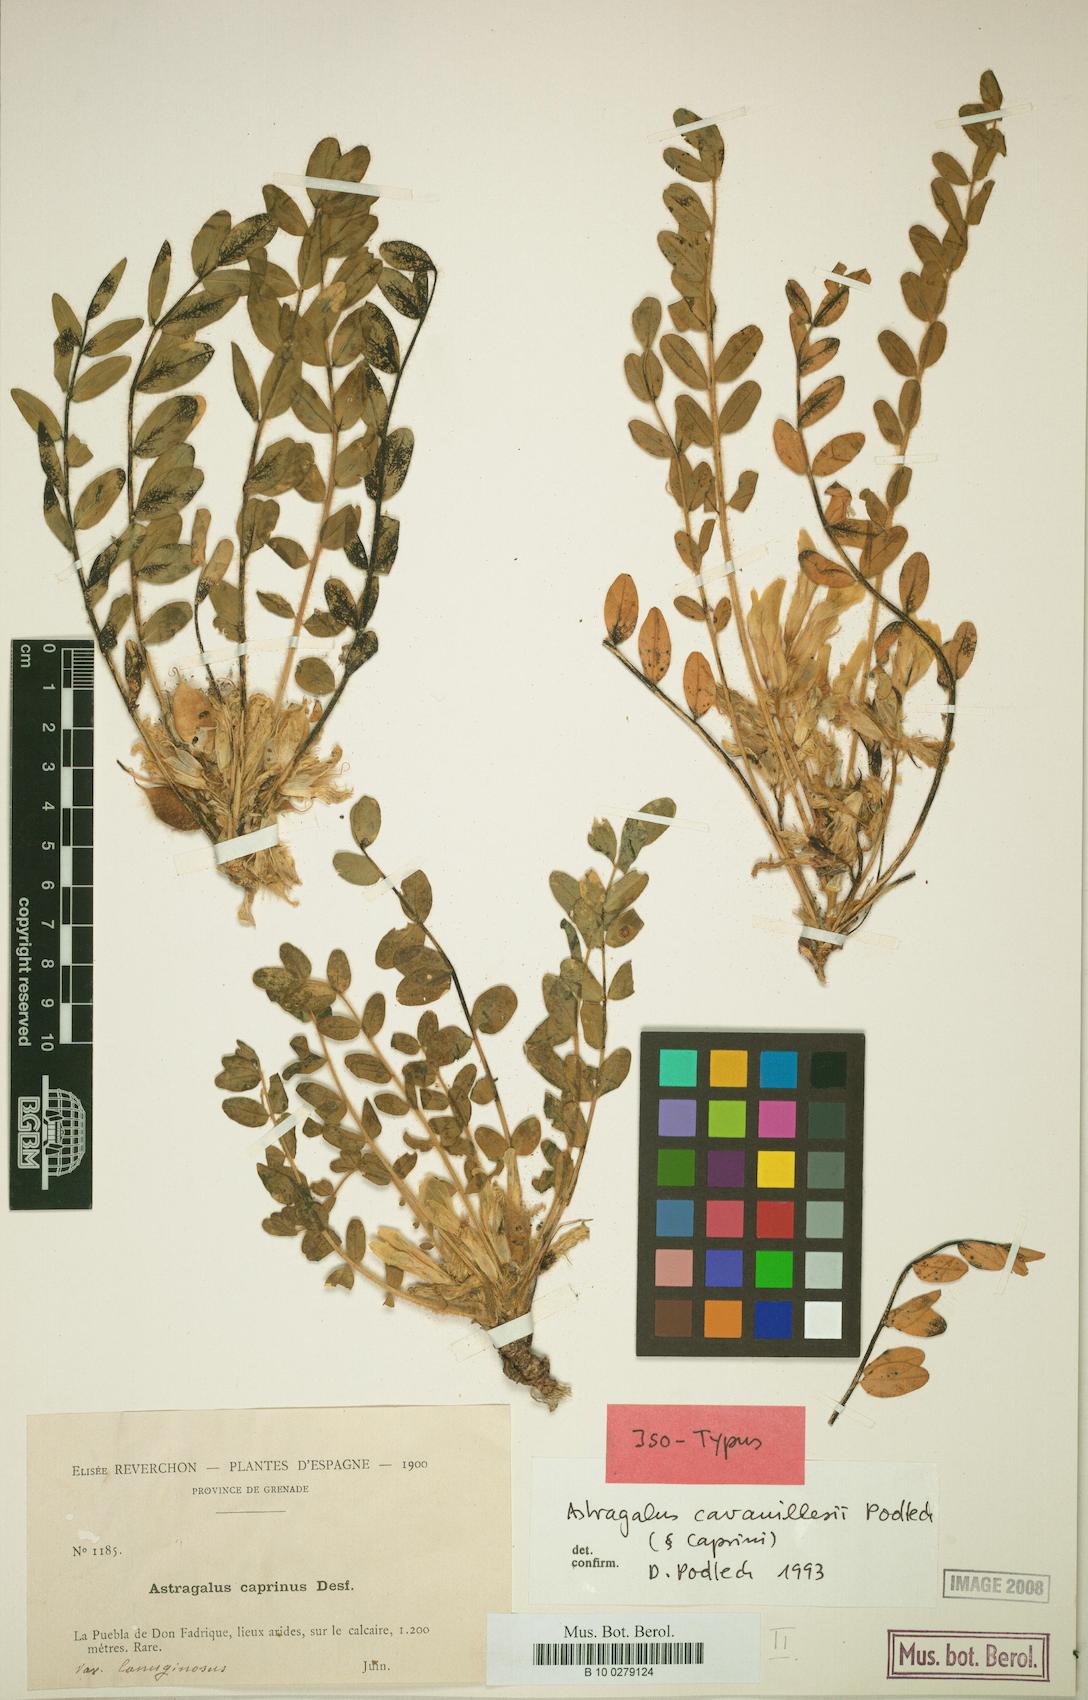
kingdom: Plantae
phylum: Tracheophyta
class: Magnoliopsida
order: Fabales
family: Fabaceae
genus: Astragalus
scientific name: Astragalus cavanillesii
